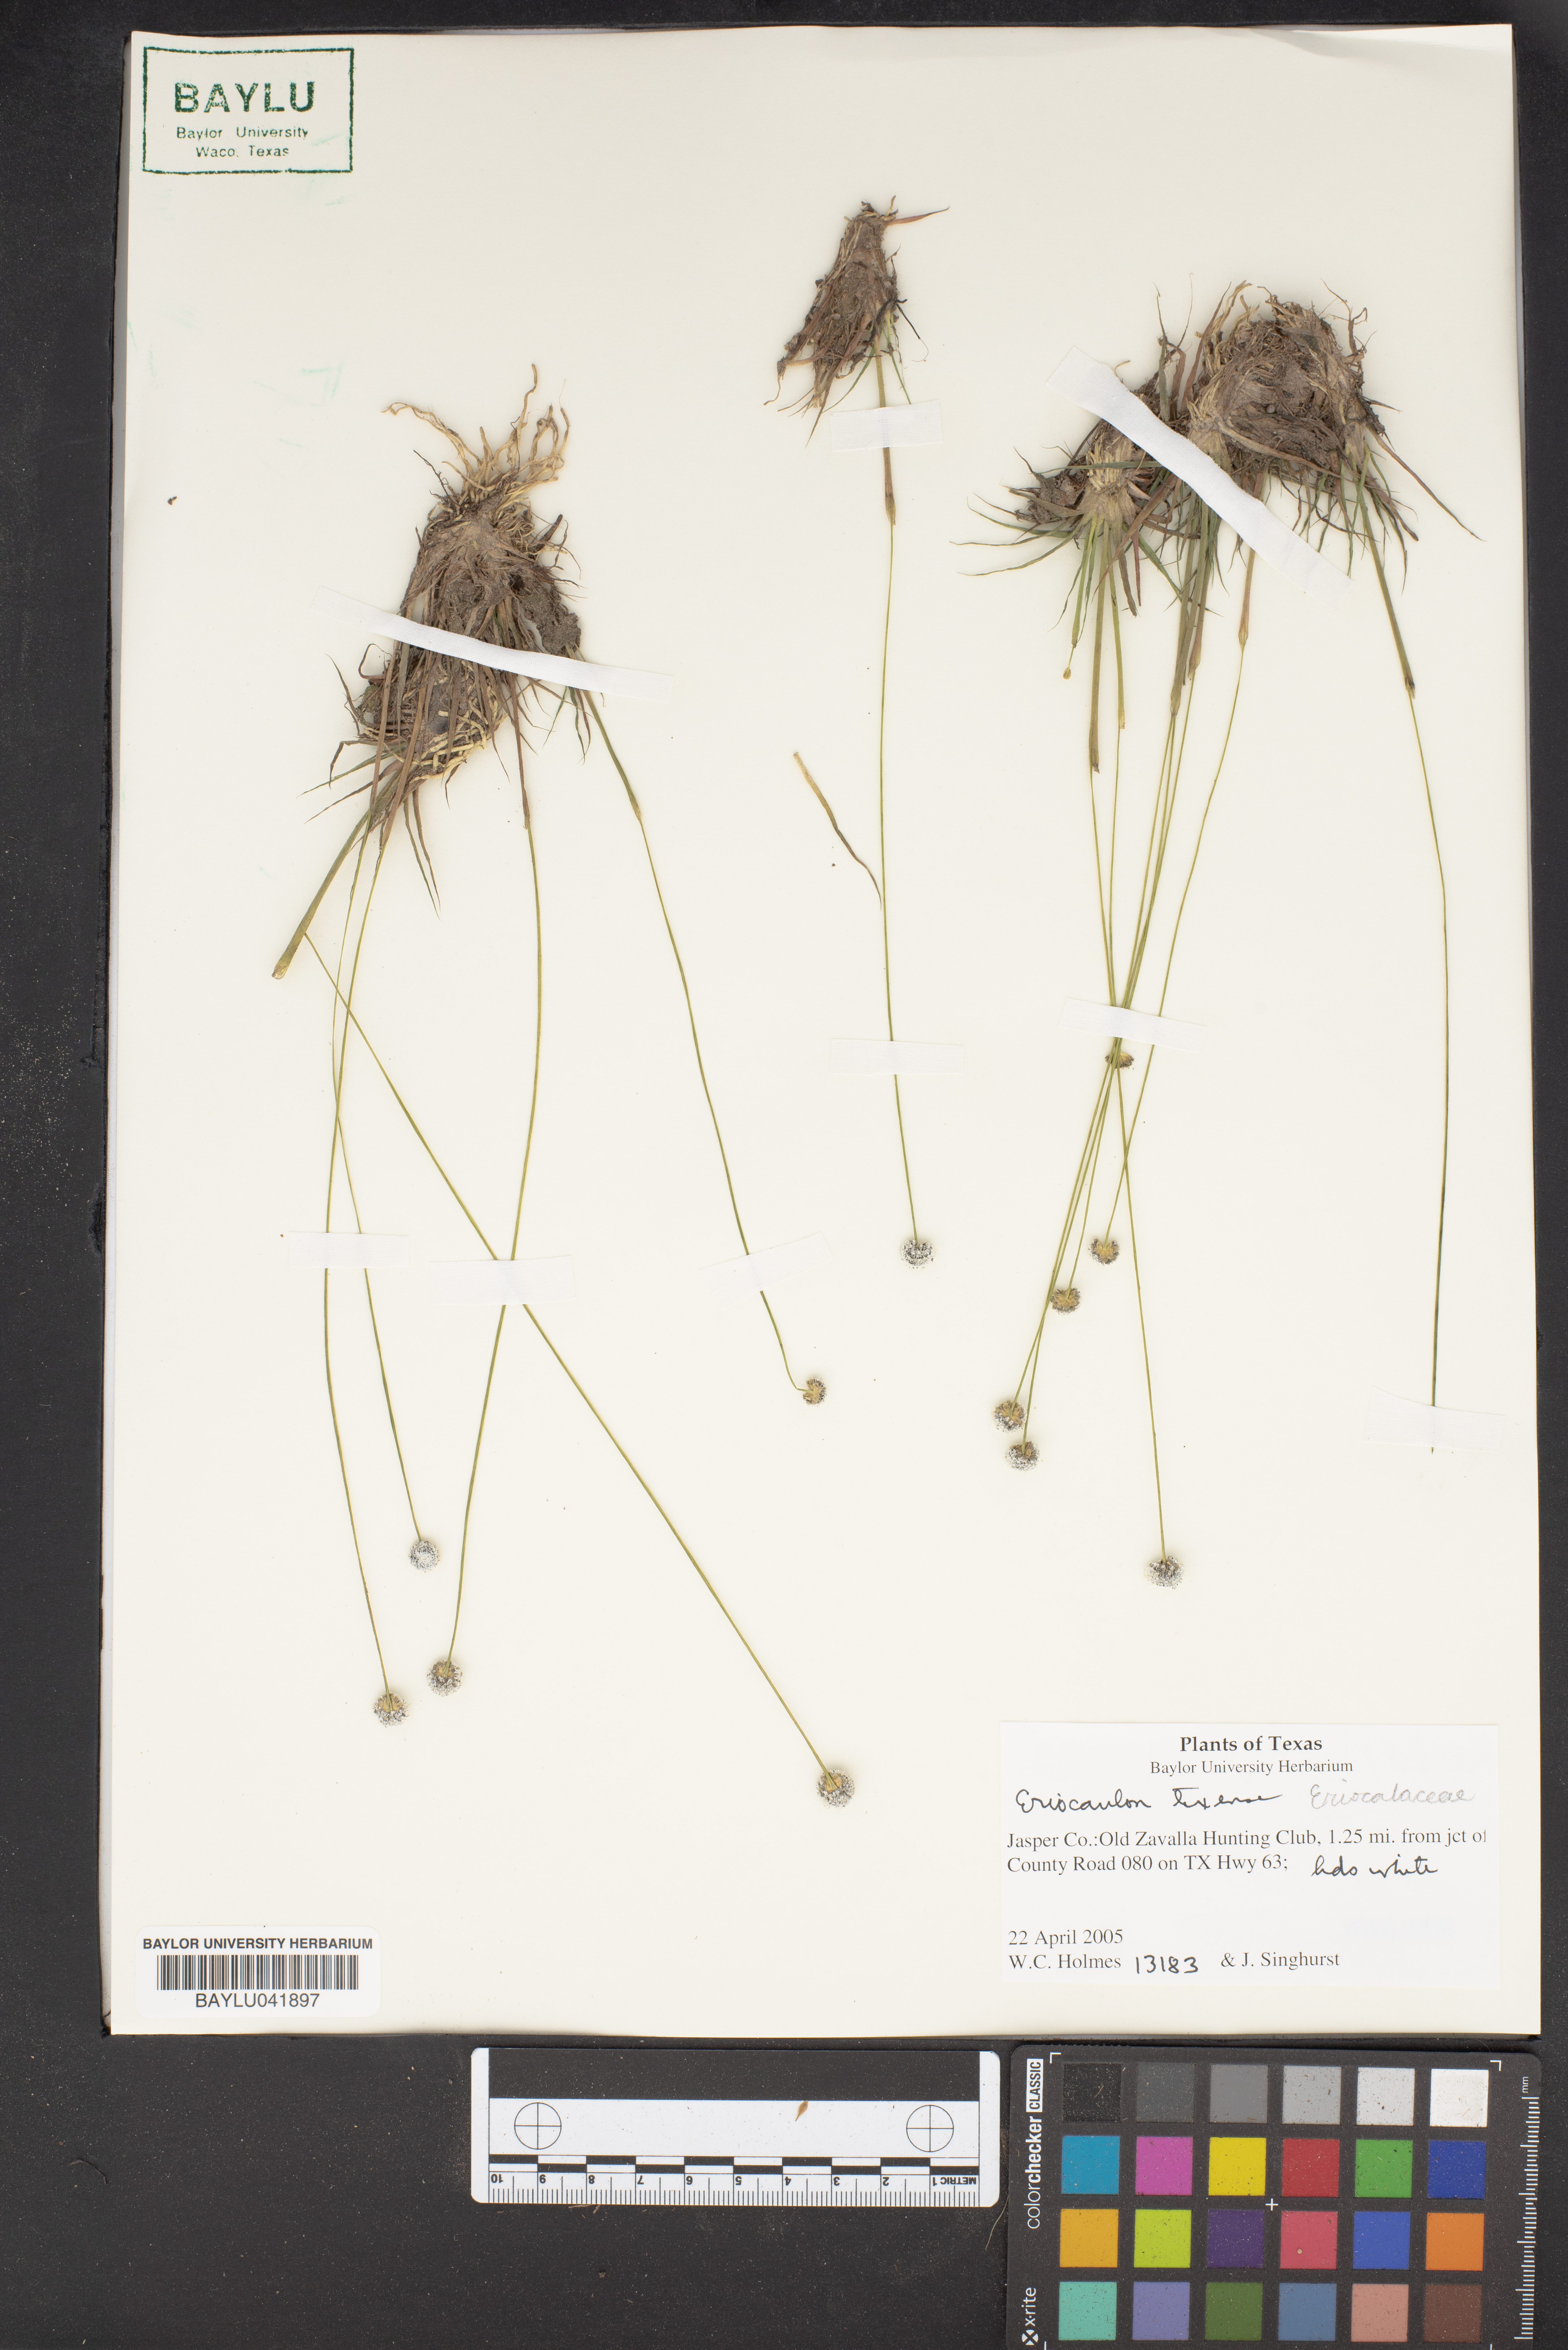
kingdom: Plantae
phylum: Tracheophyta
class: Liliopsida
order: Poales
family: Eriocaulaceae
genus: Eriocaulon
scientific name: Eriocaulon texense
